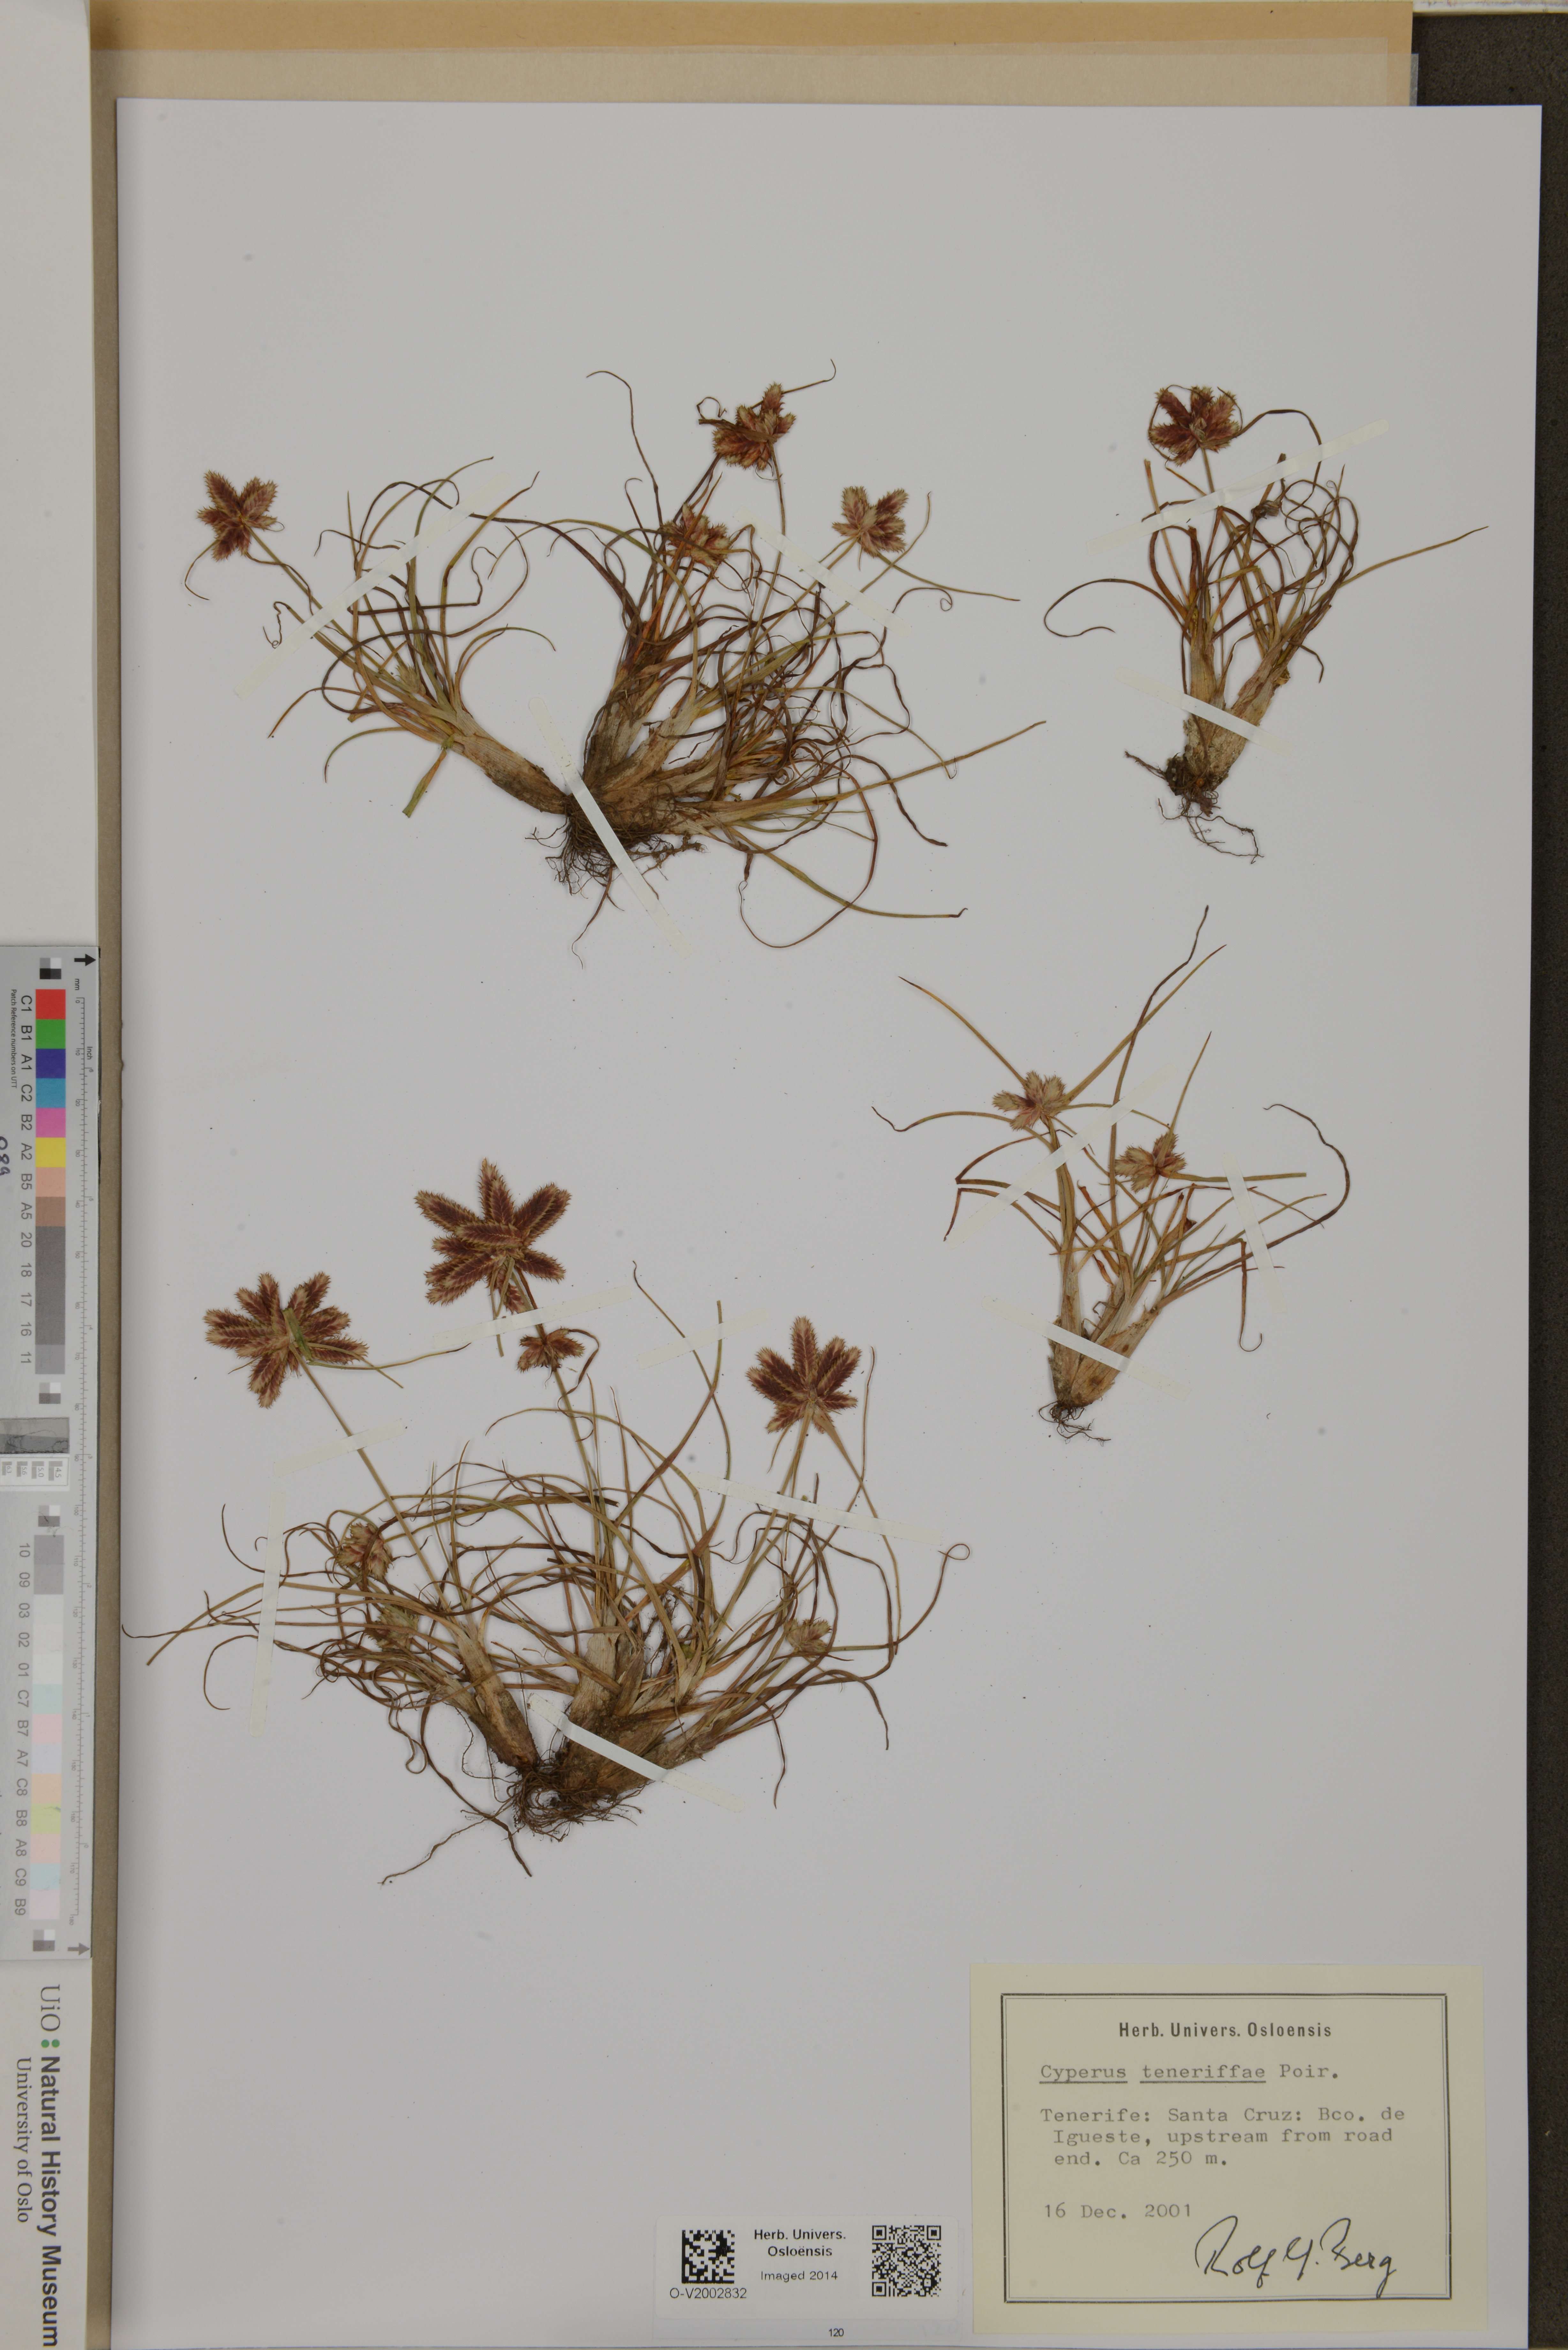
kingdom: Plantae
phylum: Tracheophyta
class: Liliopsida
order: Poales
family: Cyperaceae
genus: Cyperus
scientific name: Cyperus rubicundus
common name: Coco-grass
